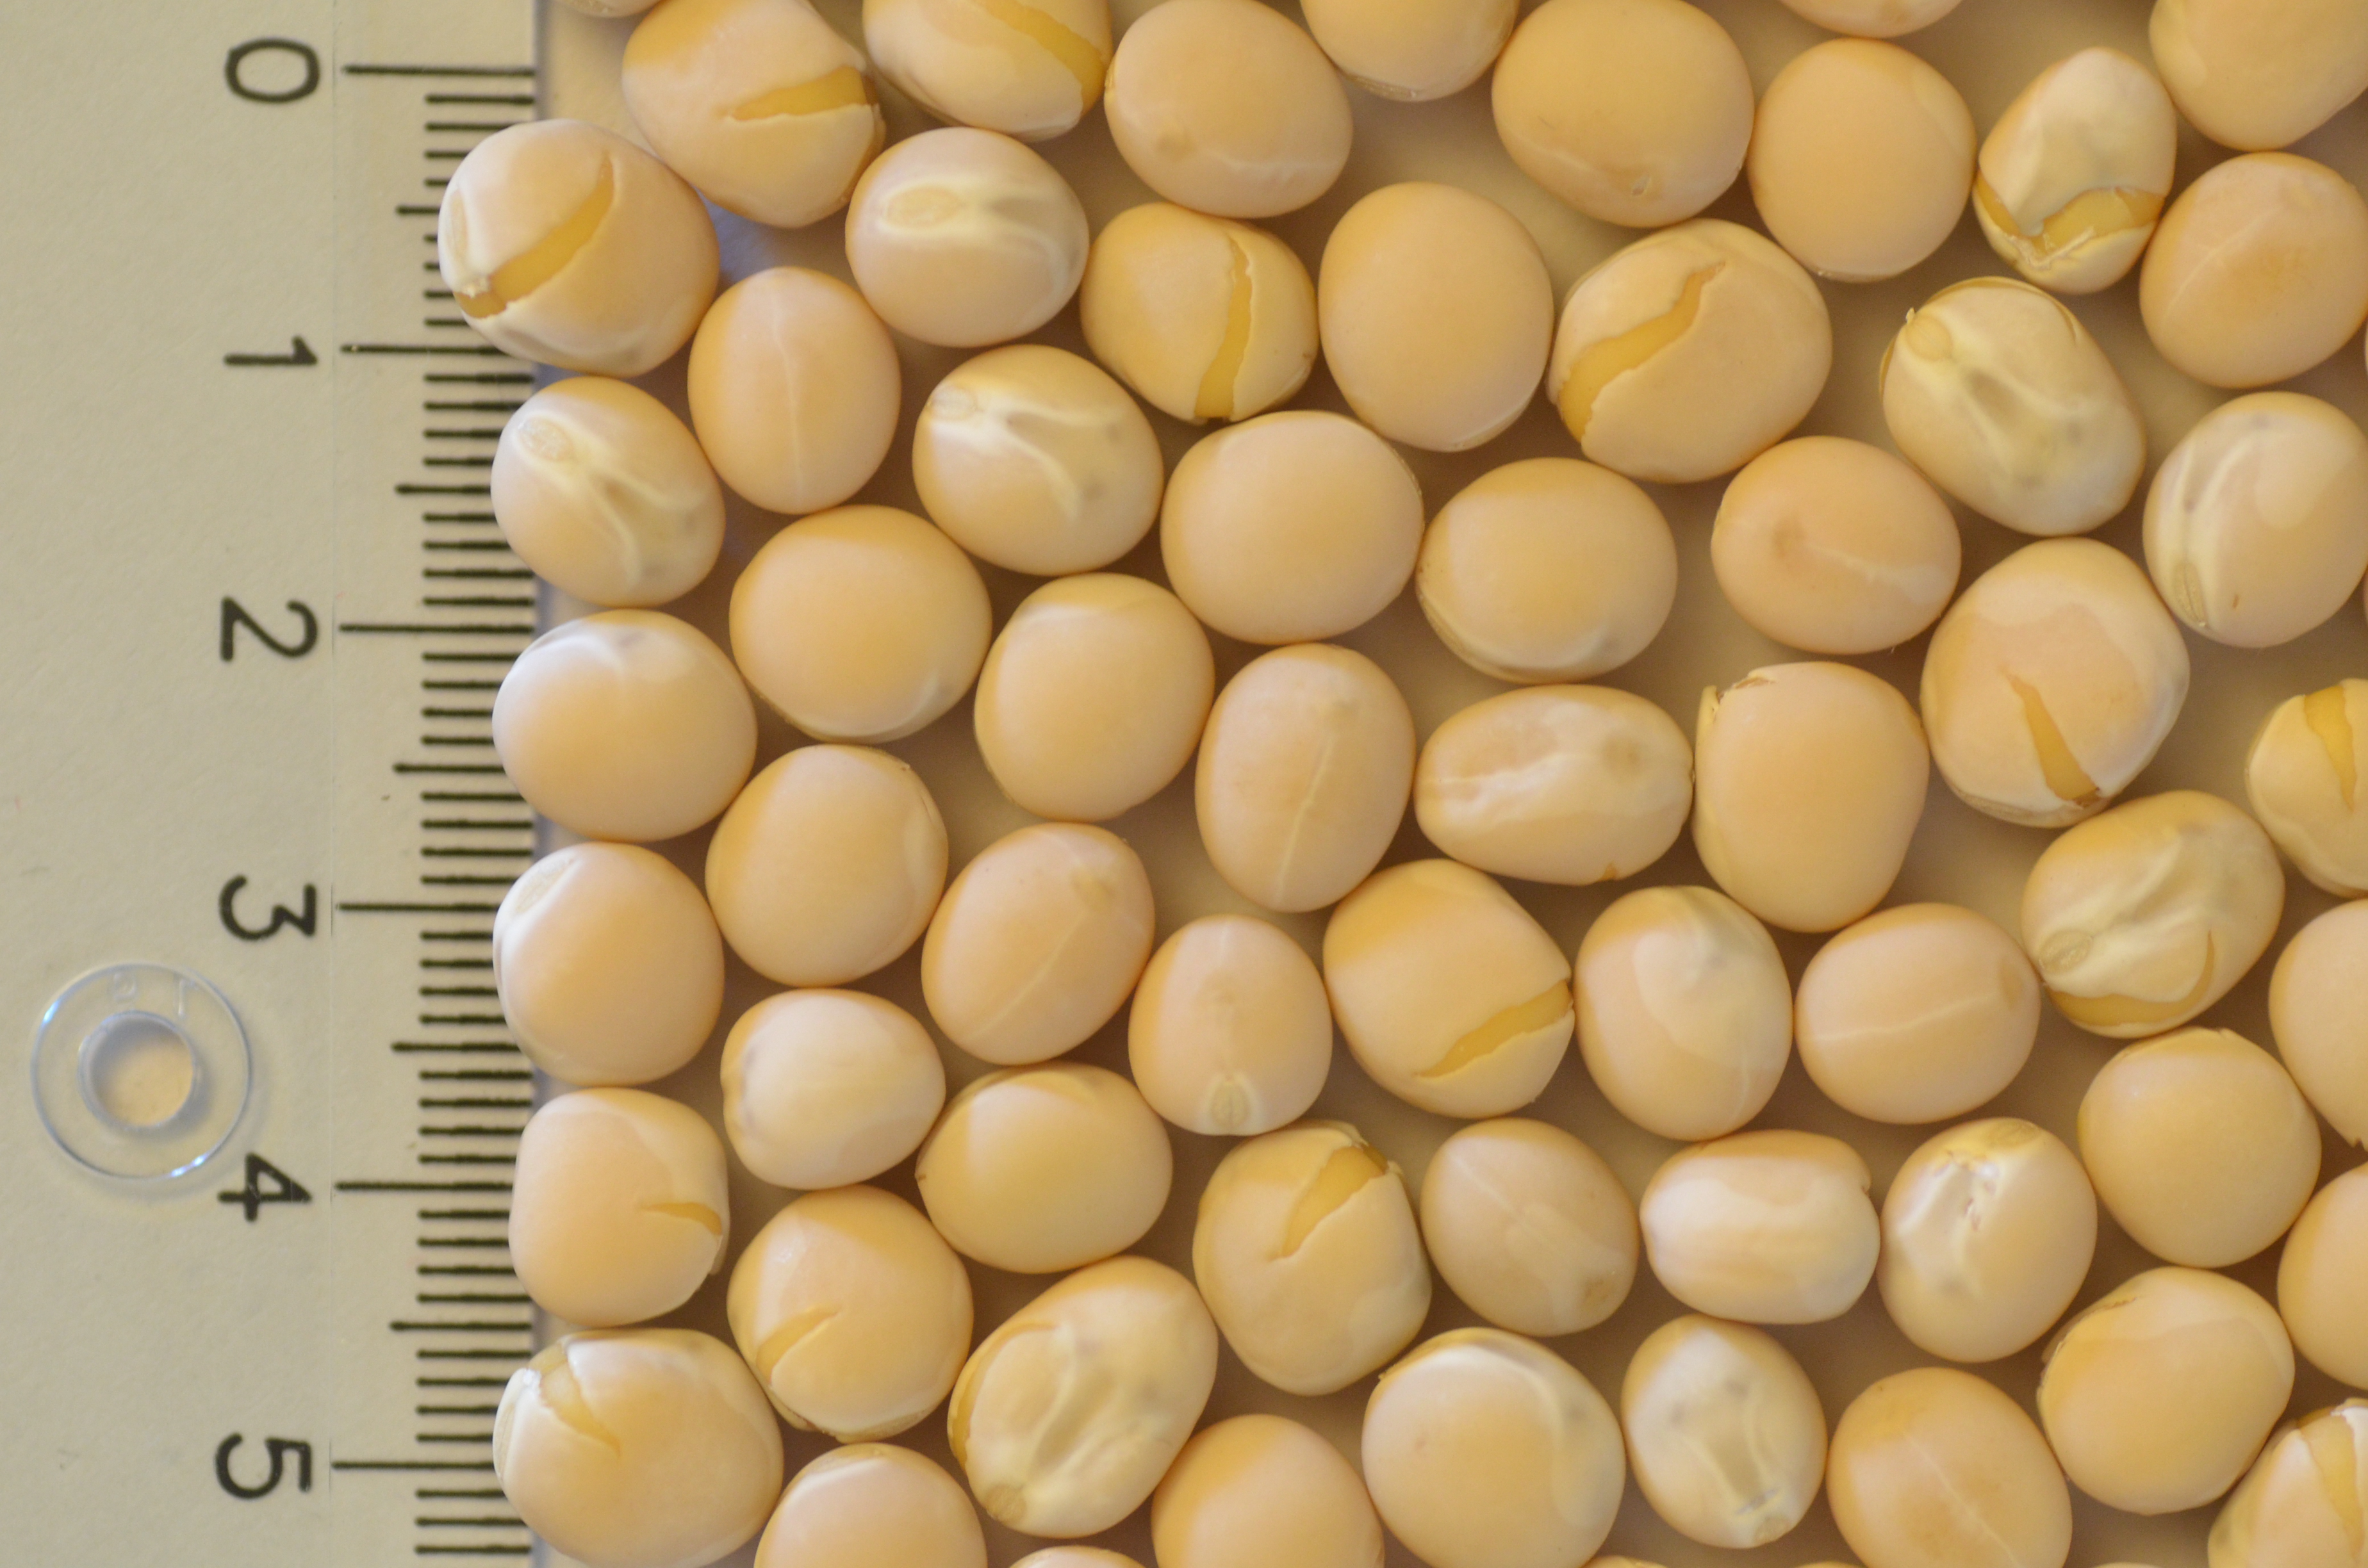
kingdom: Plantae
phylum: Tracheophyta
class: Magnoliopsida
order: Fabales
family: Fabaceae
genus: Lathyrus
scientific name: Lathyrus oleraceus
